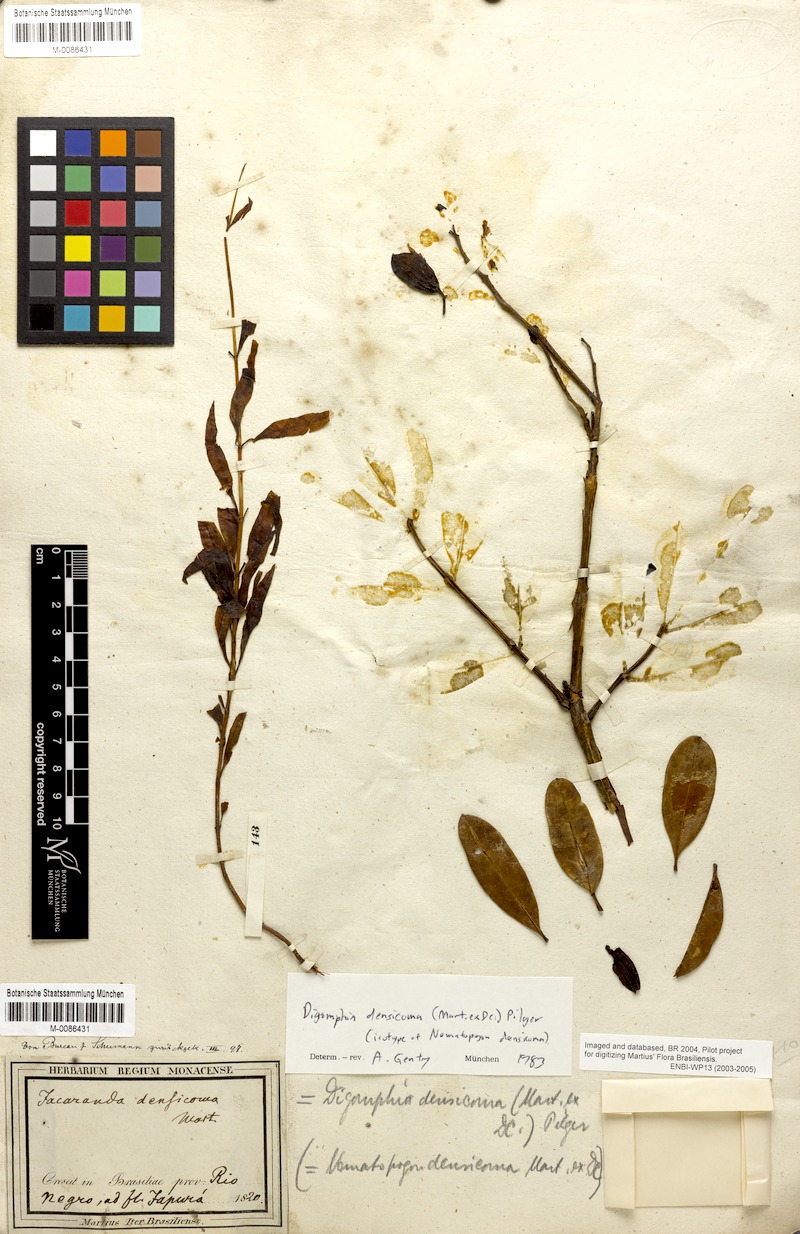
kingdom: Plantae
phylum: Tracheophyta
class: Magnoliopsida
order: Lamiales
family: Bignoniaceae
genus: Digomphia
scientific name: Digomphia densicoma
